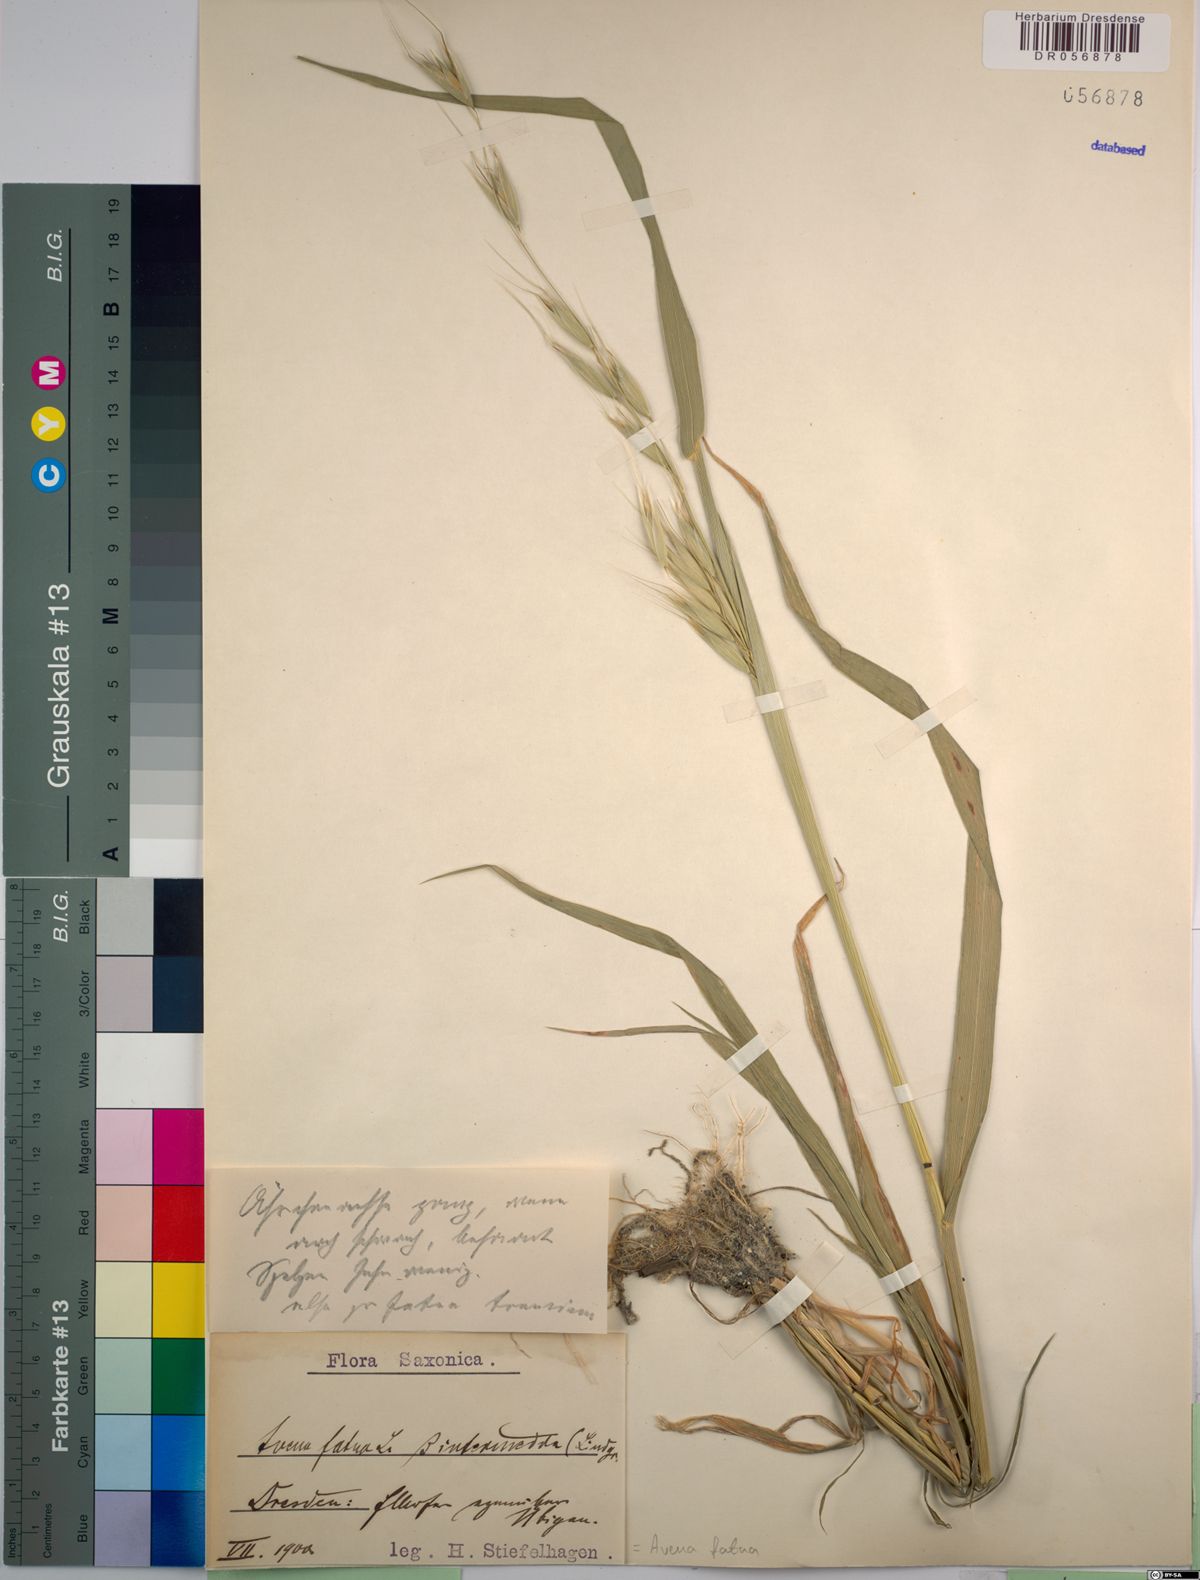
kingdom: Plantae
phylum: Tracheophyta
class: Liliopsida
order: Poales
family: Poaceae
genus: Avena
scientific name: Avena fatua
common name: Wild oat
